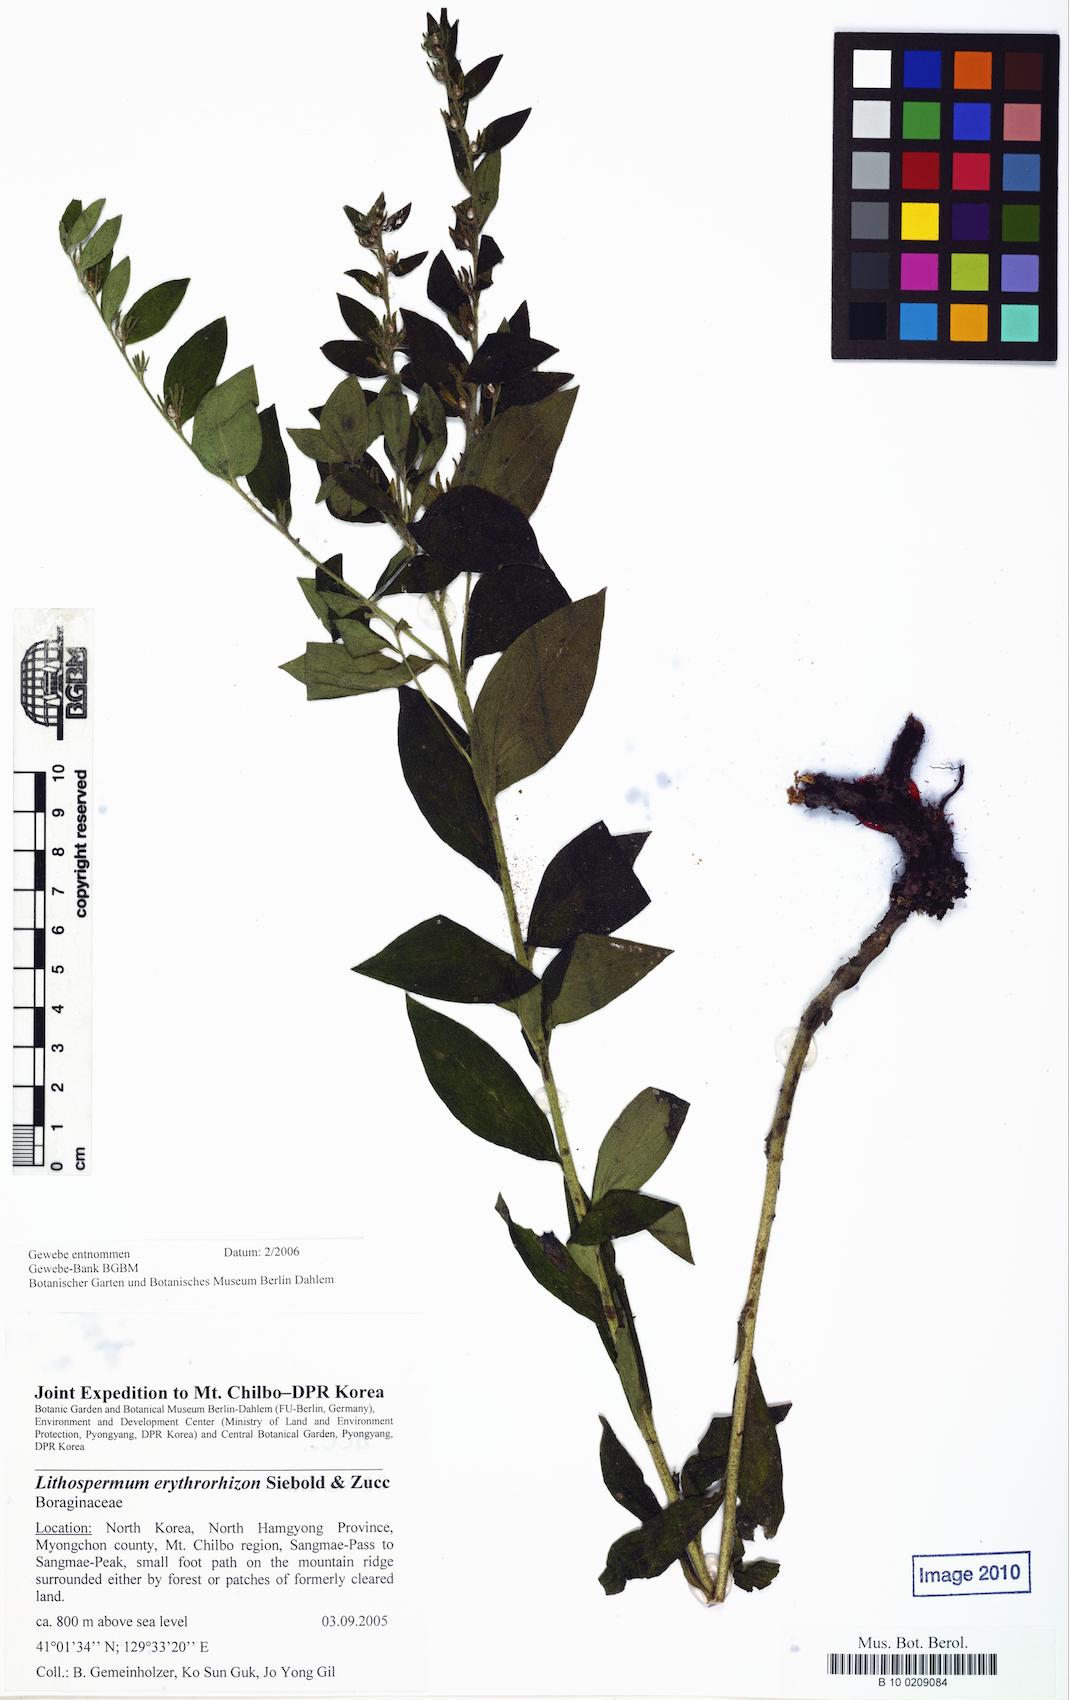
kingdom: Plantae
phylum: Tracheophyta
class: Magnoliopsida
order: Boraginales
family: Boraginaceae
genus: Lithospermum
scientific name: Lithospermum erythrorhizon
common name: Purple gromwell
